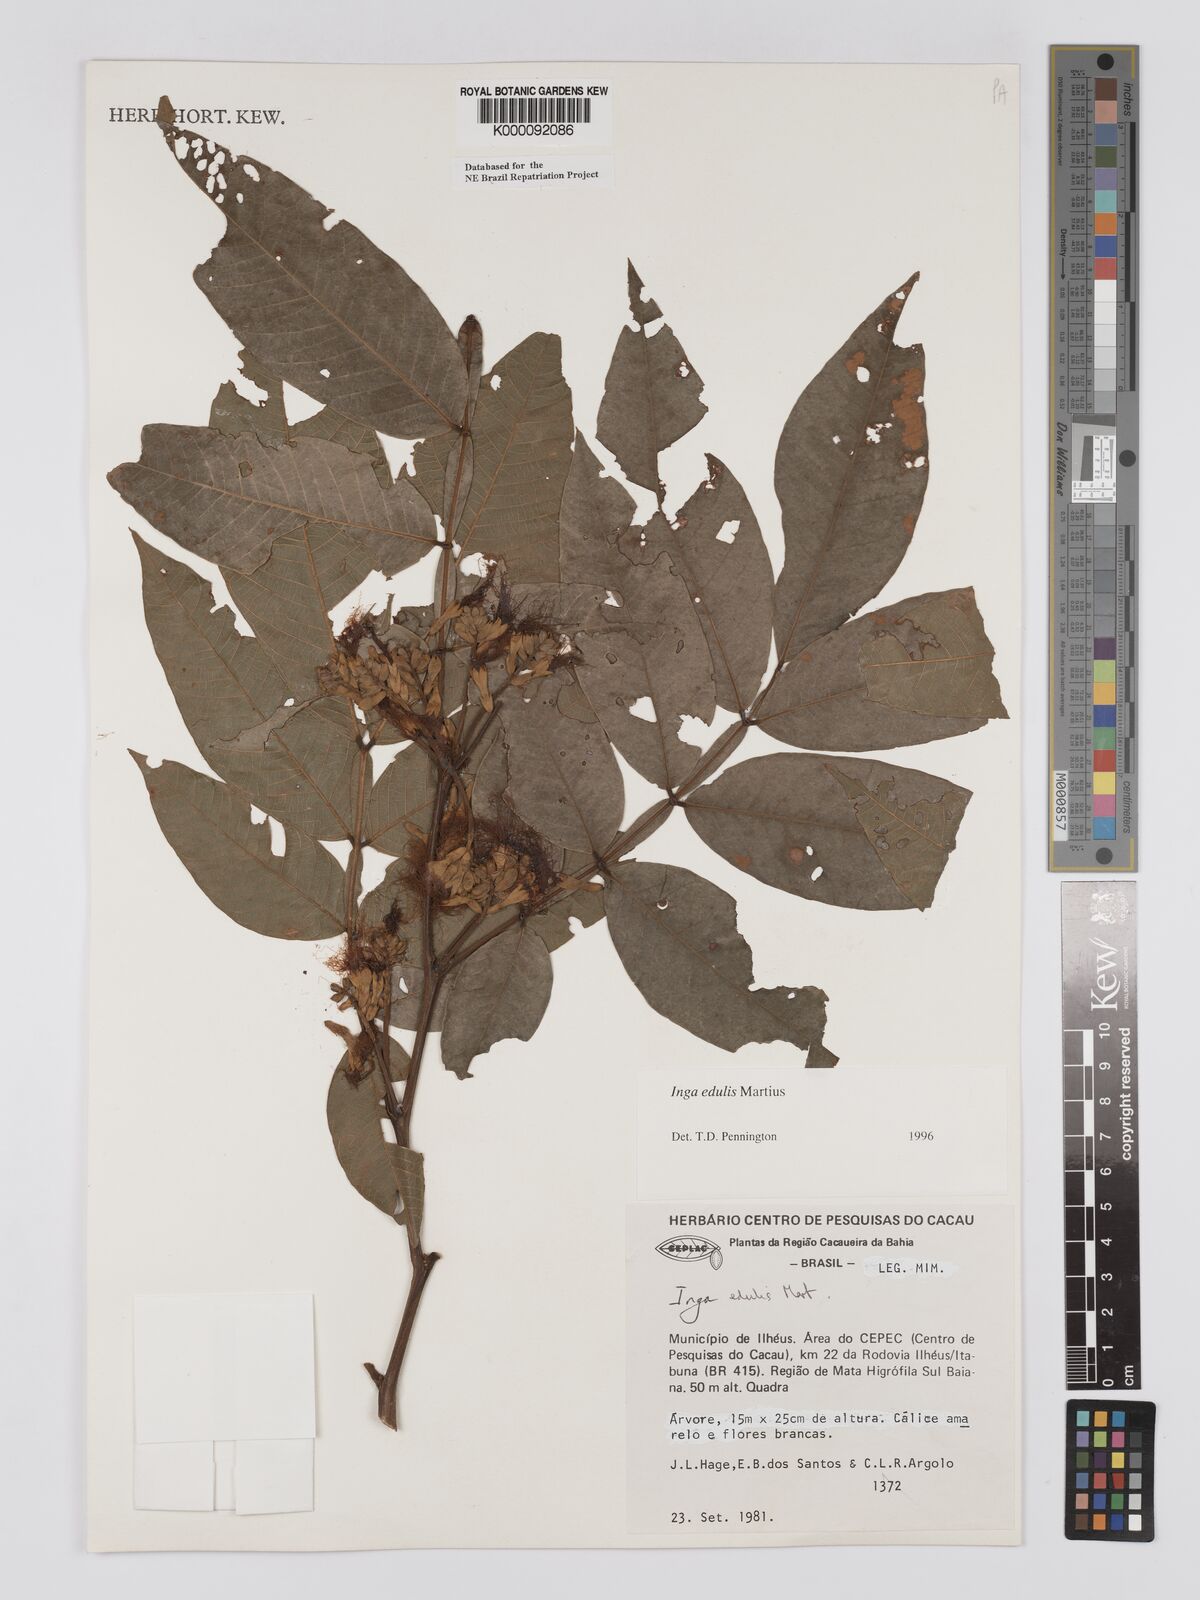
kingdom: Plantae
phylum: Tracheophyta
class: Magnoliopsida
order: Fabales
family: Fabaceae
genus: Inga
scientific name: Inga edulis
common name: Ice cream bean
